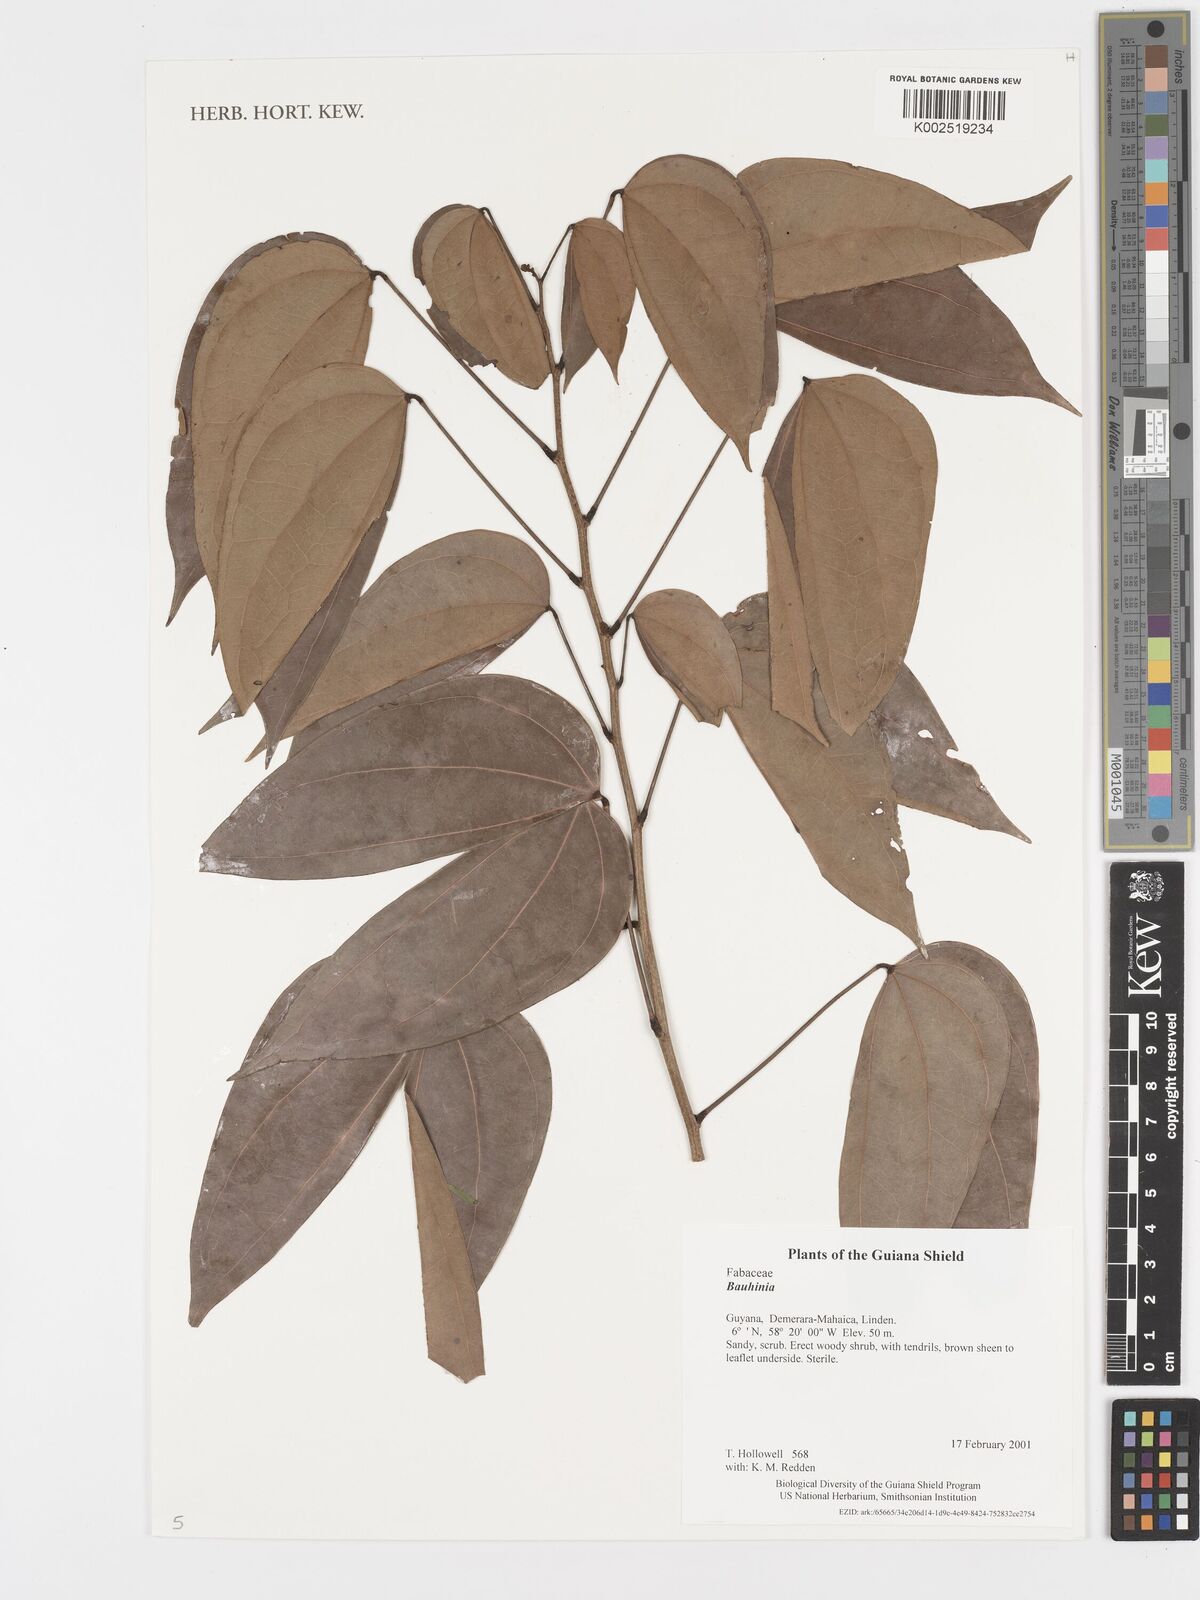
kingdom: Plantae
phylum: Tracheophyta
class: Magnoliopsida
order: Fabales
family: Fabaceae
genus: Bauhinia
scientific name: Bauhinia
